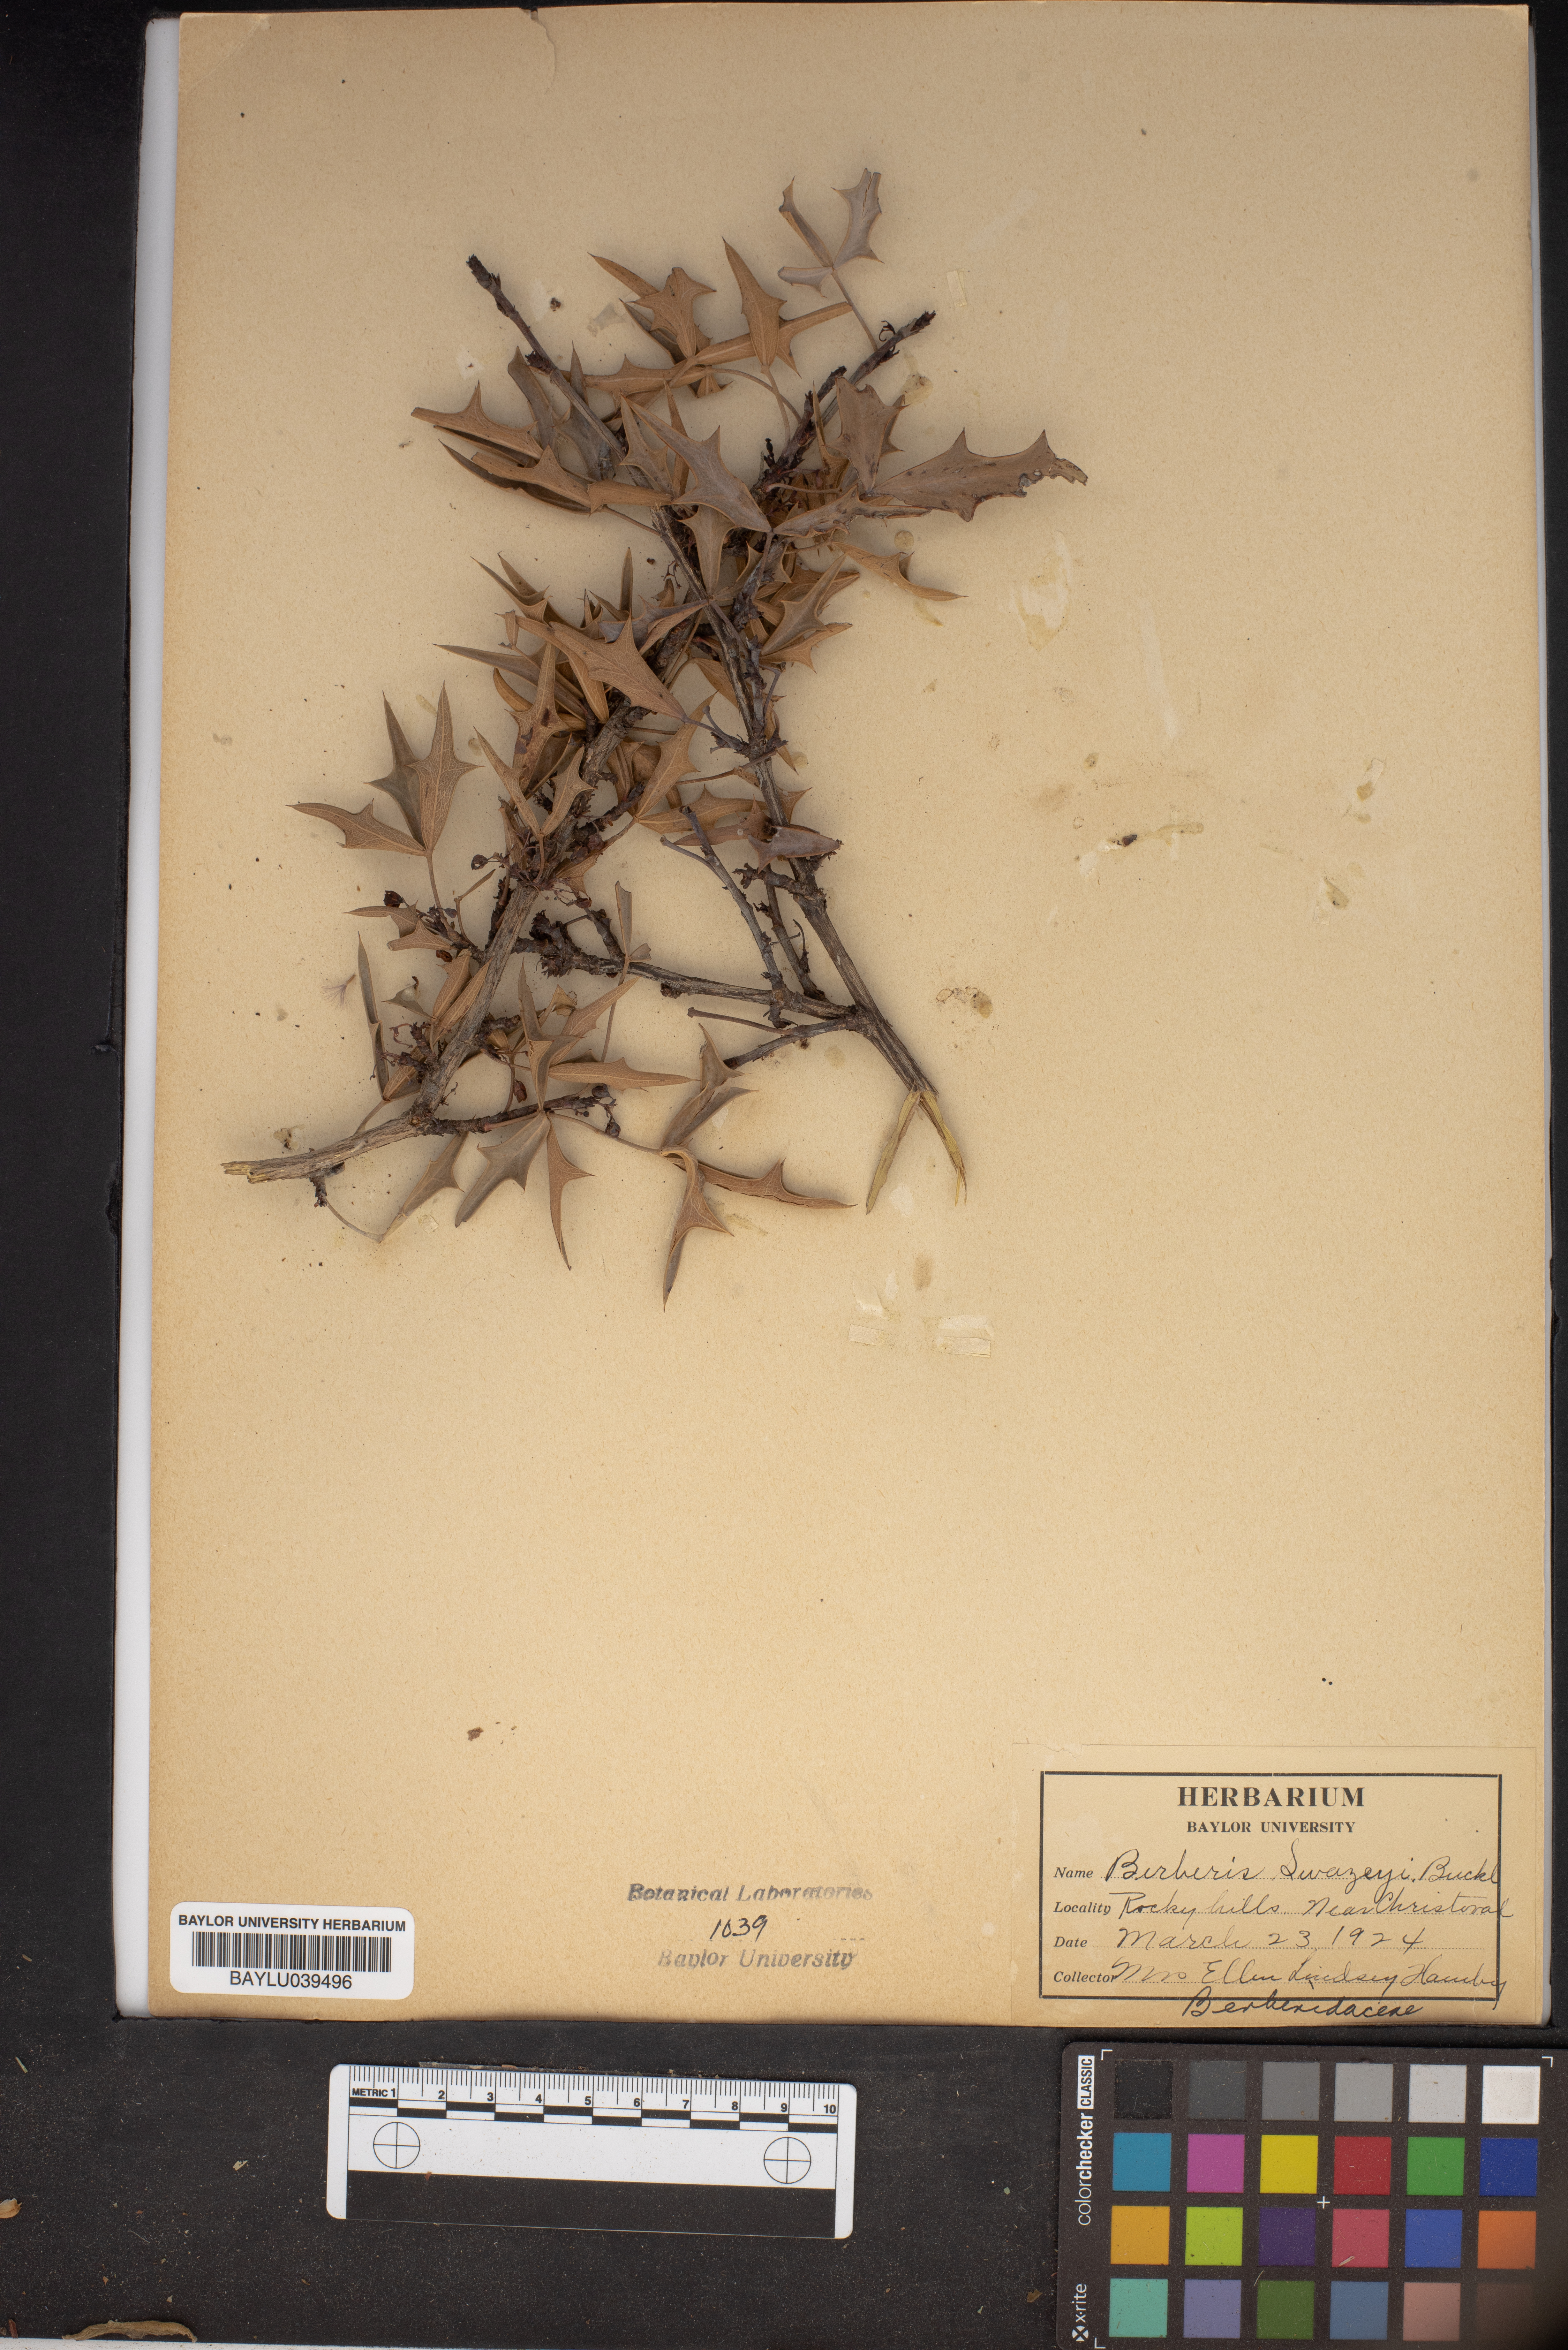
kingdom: Plantae
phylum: Tracheophyta
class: Magnoliopsida
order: Ranunculales
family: Berberidaceae
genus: Berberis
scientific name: Berberis swaseyi
